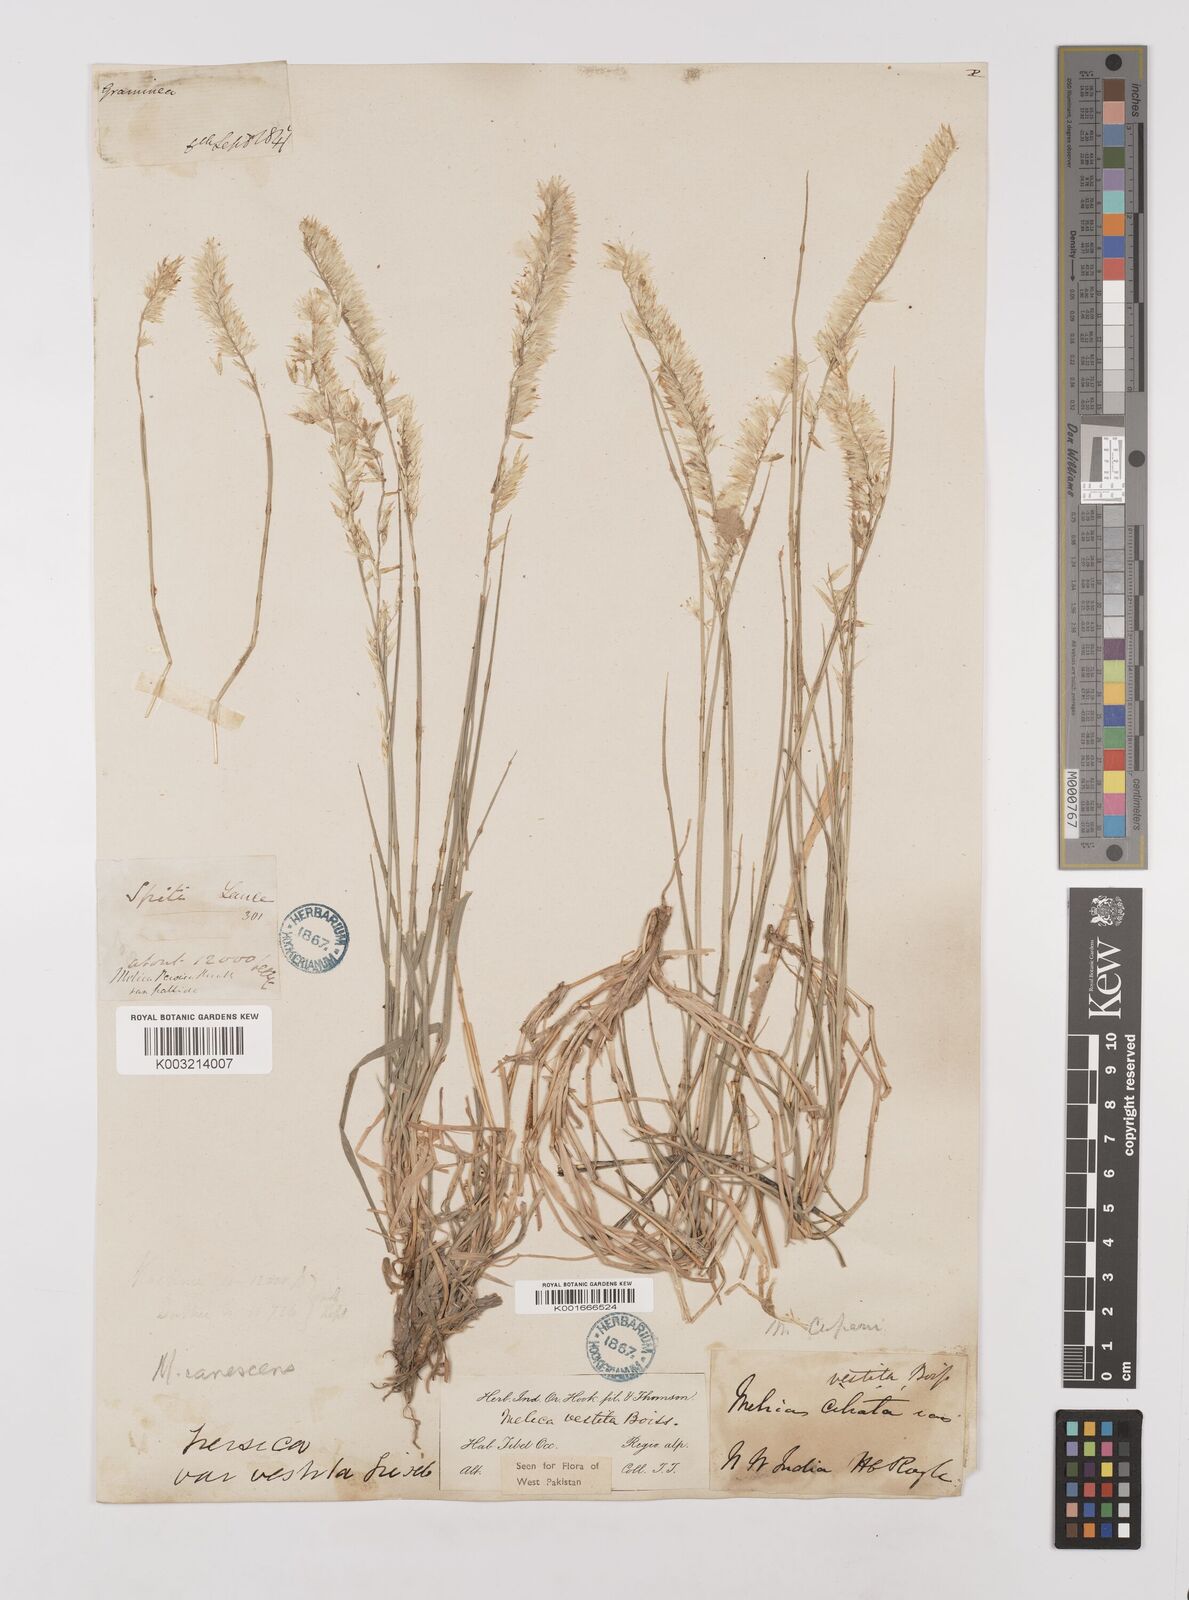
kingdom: Plantae
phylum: Tracheophyta
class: Liliopsida
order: Poales
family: Poaceae
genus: Melica
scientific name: Melica persica
